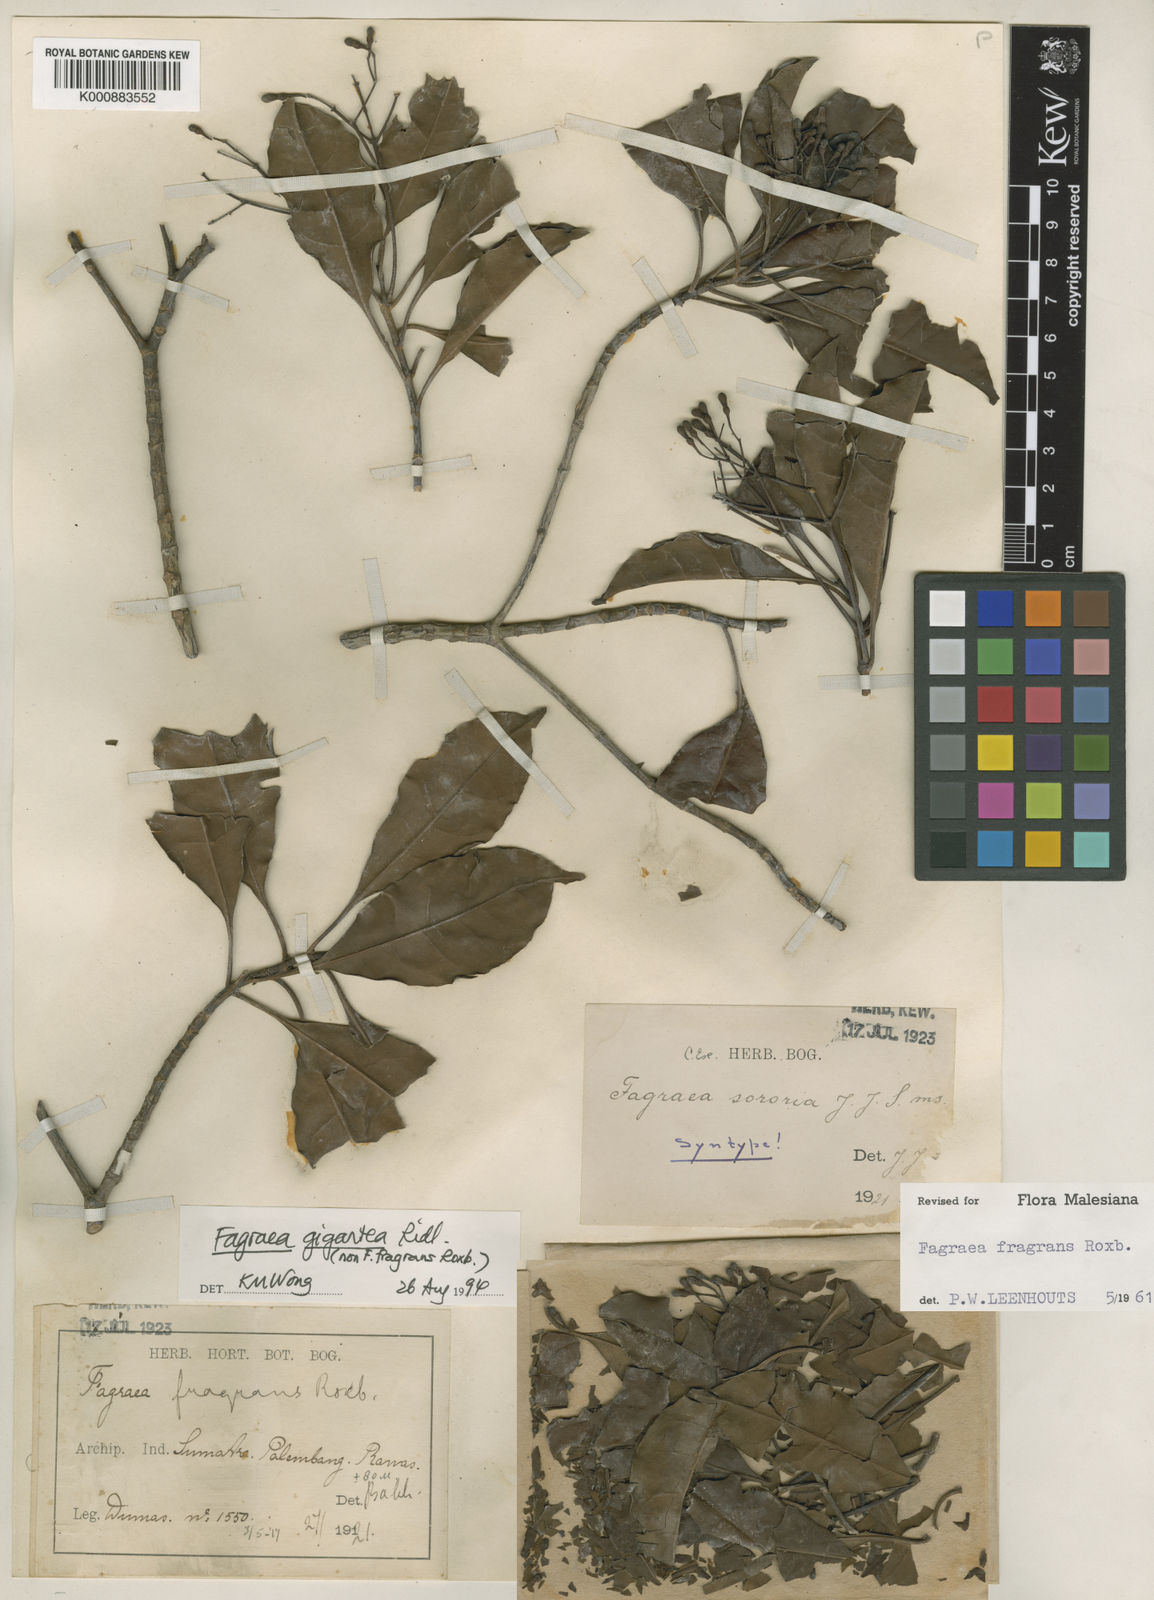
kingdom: Plantae
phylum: Tracheophyta
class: Magnoliopsida
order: Gentianales
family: Gentianaceae
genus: Cyrtophyllum
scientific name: Cyrtophyllum giganteum
